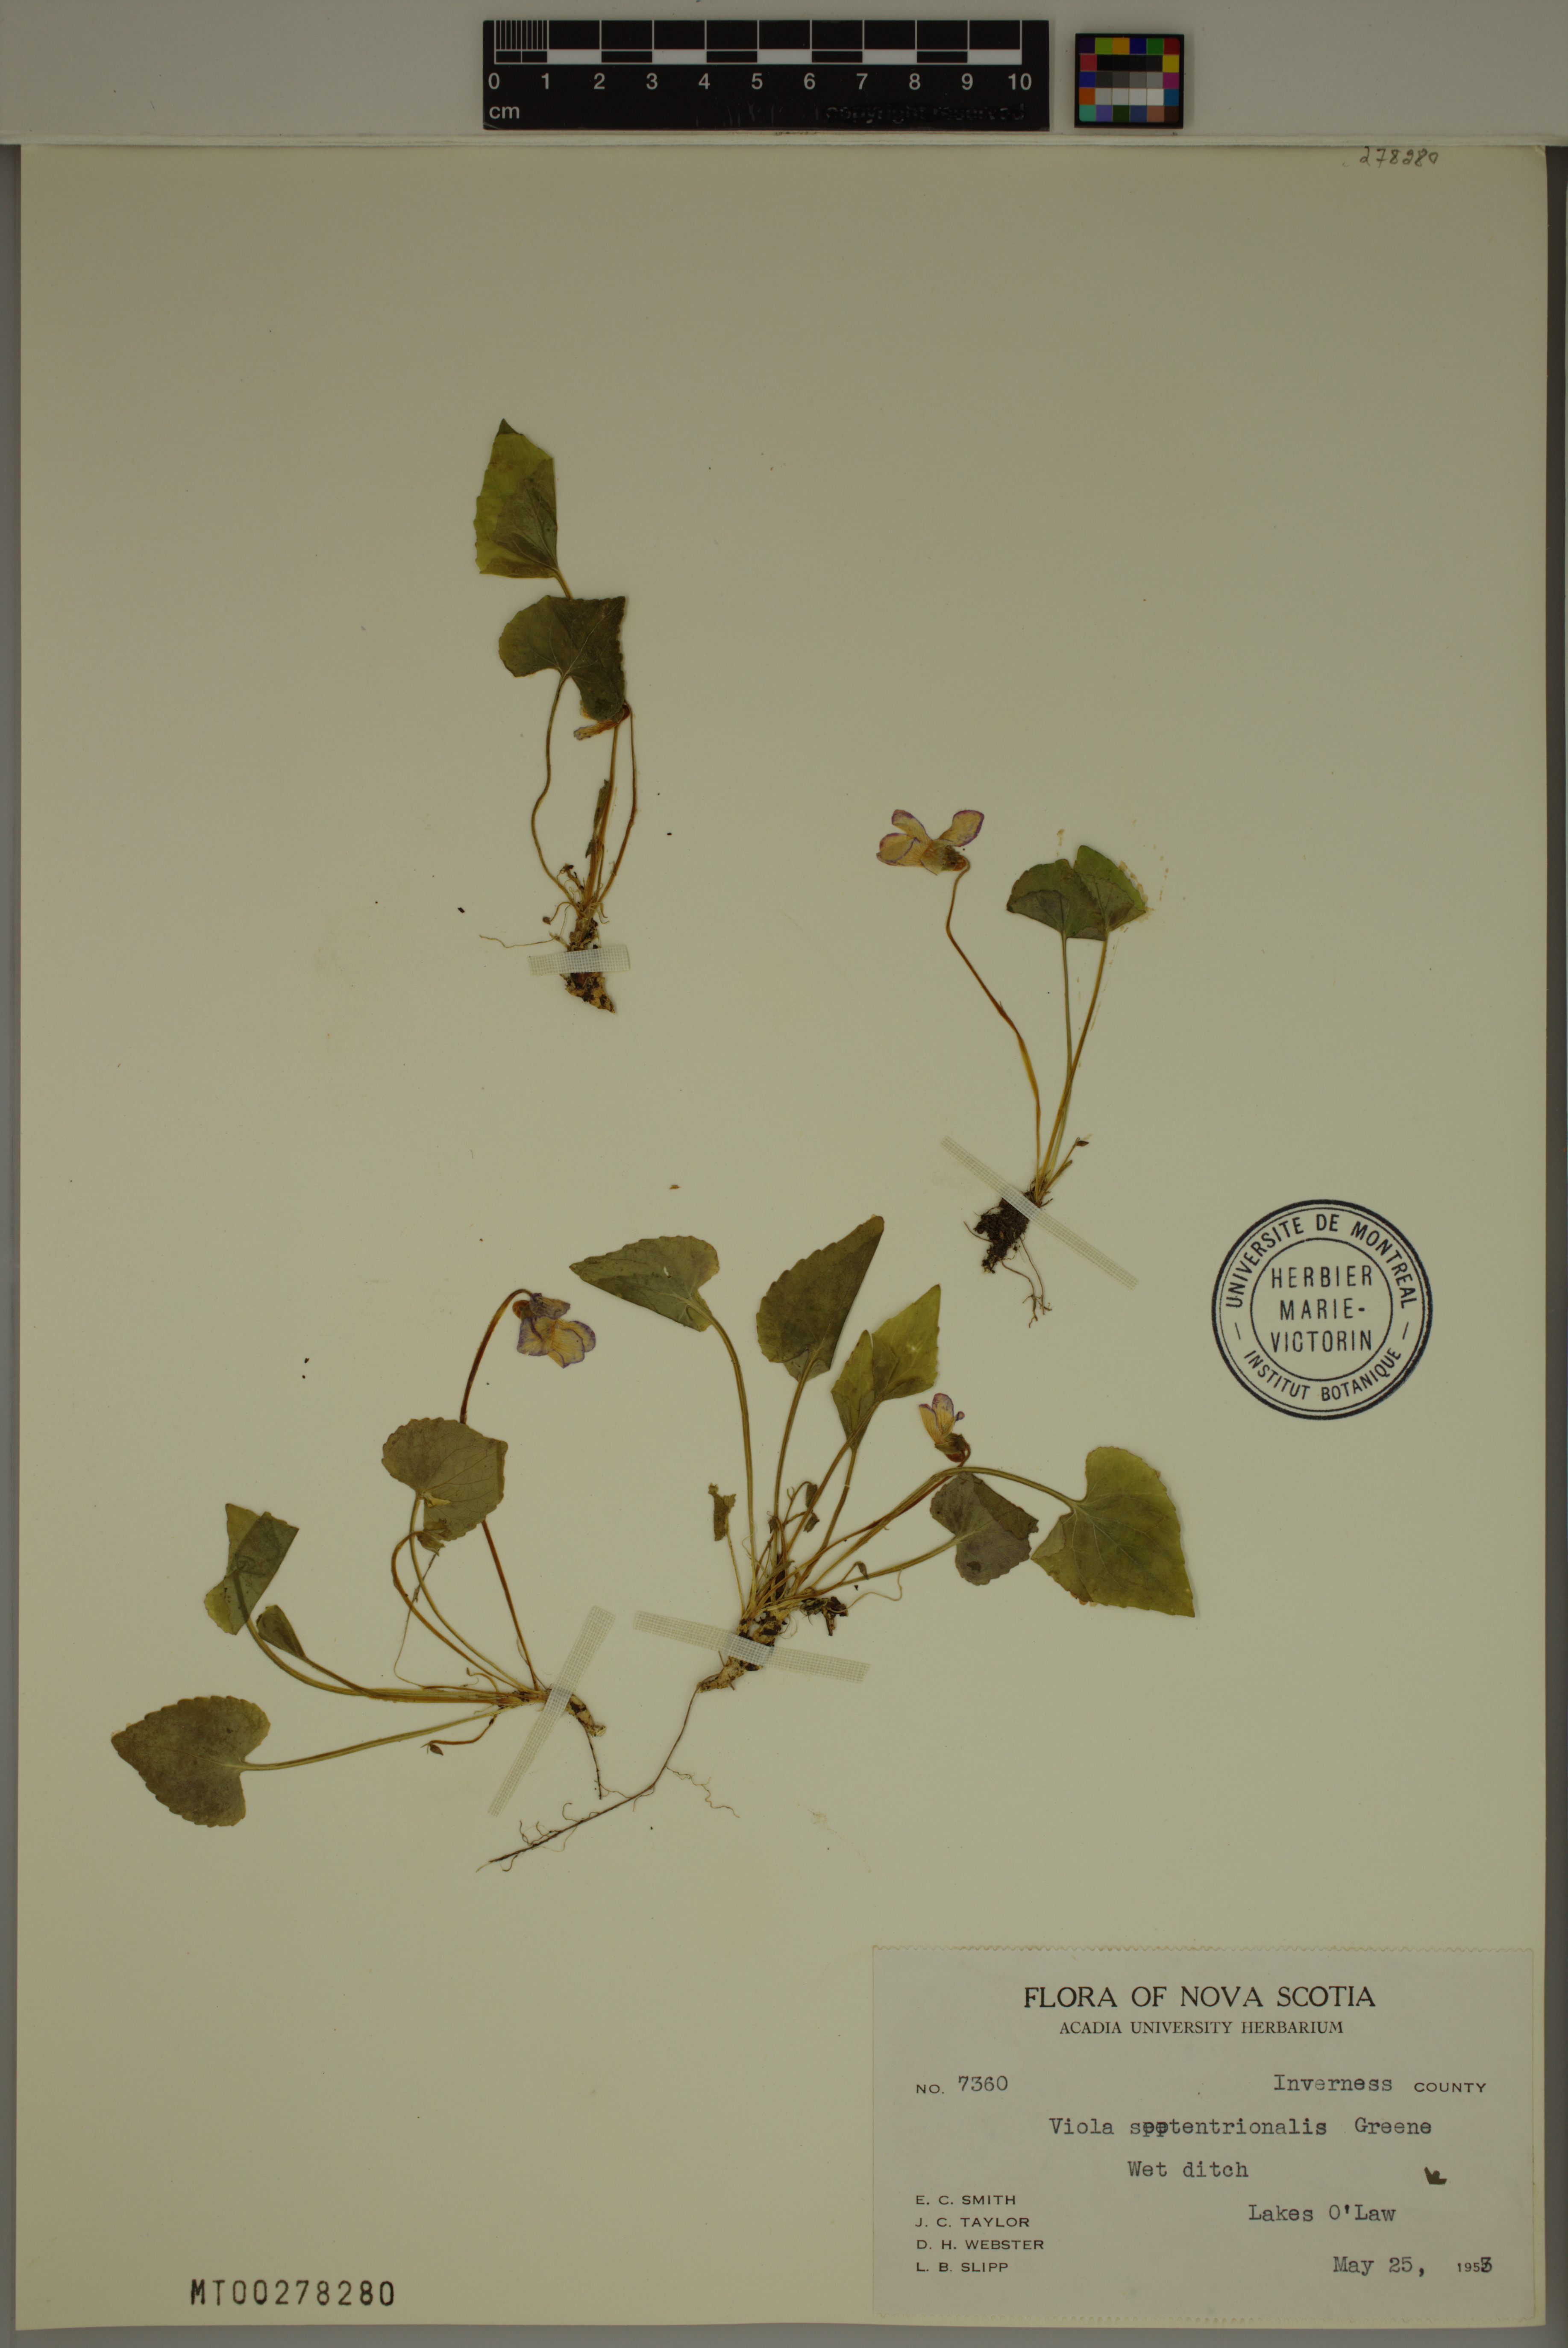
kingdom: Plantae
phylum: Tracheophyta
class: Magnoliopsida
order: Malpighiales
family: Violaceae
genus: Viola
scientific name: Viola septentrionalis
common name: Northern woodland violet
